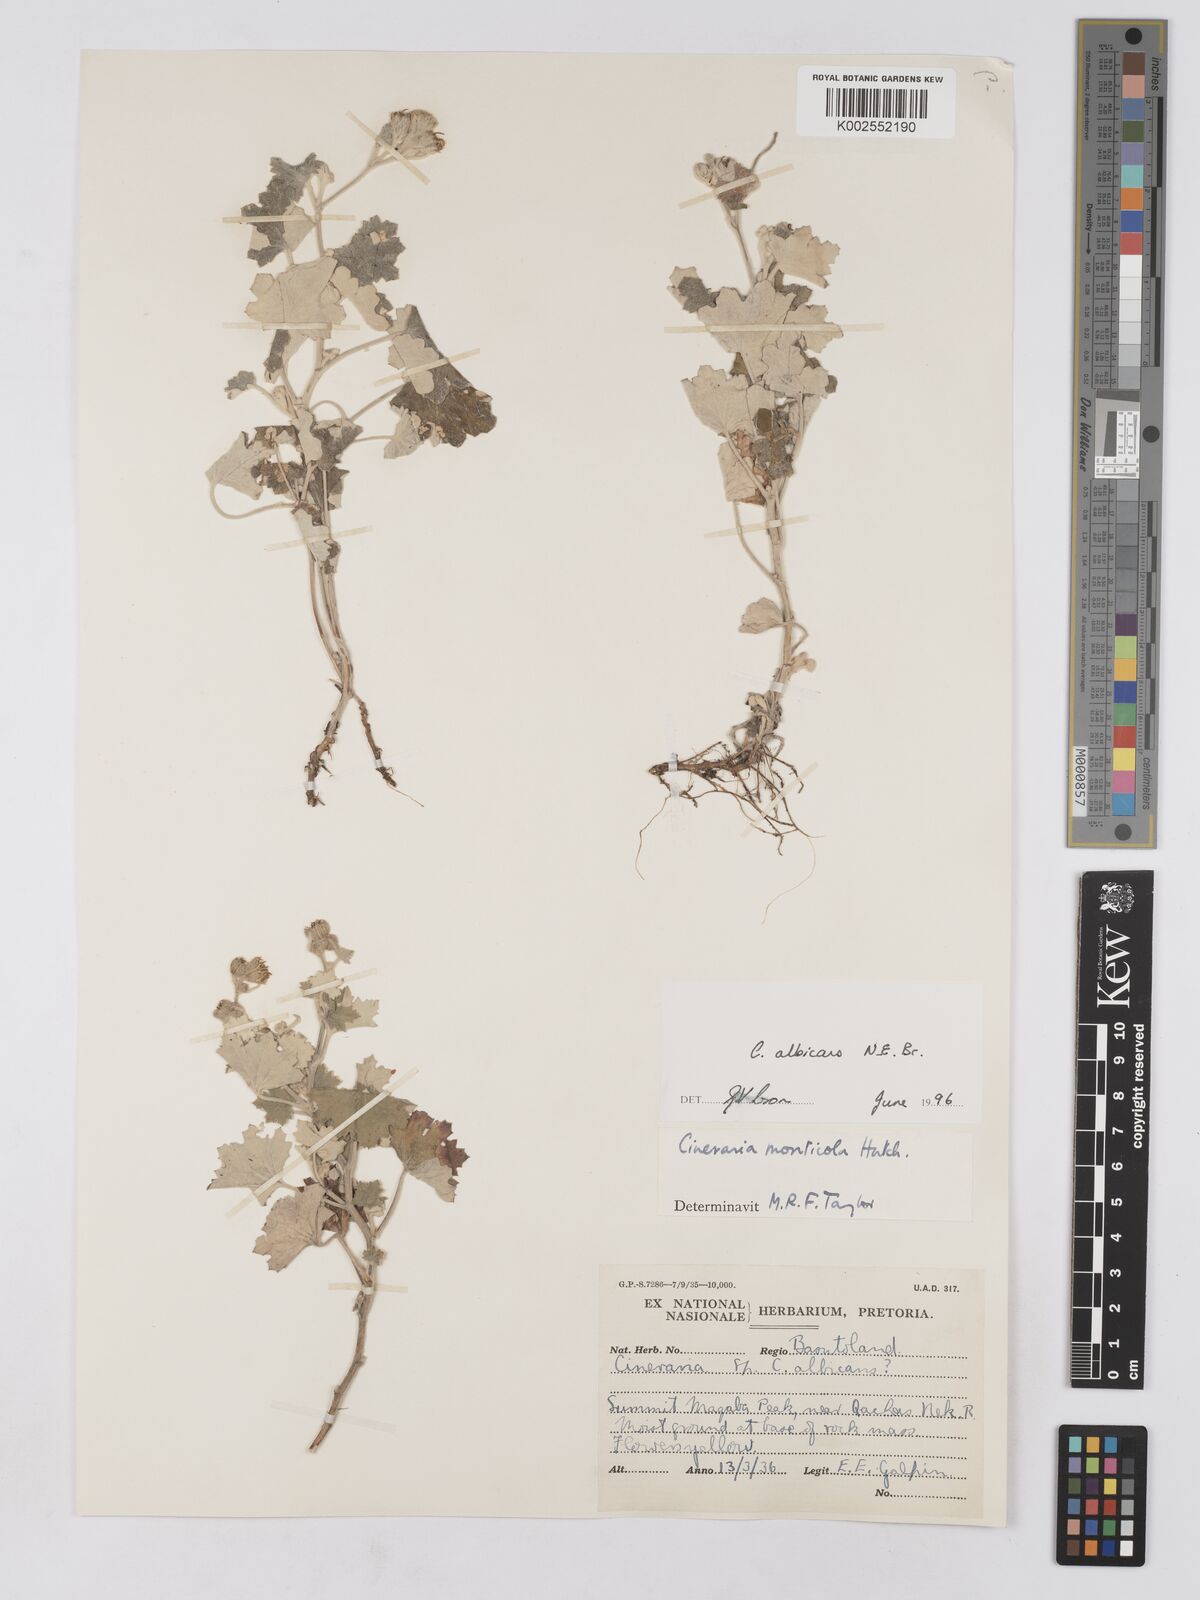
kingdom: Plantae
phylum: Tracheophyta
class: Magnoliopsida
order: Asterales
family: Asteraceae
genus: Cineraria
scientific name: Cineraria albicans
